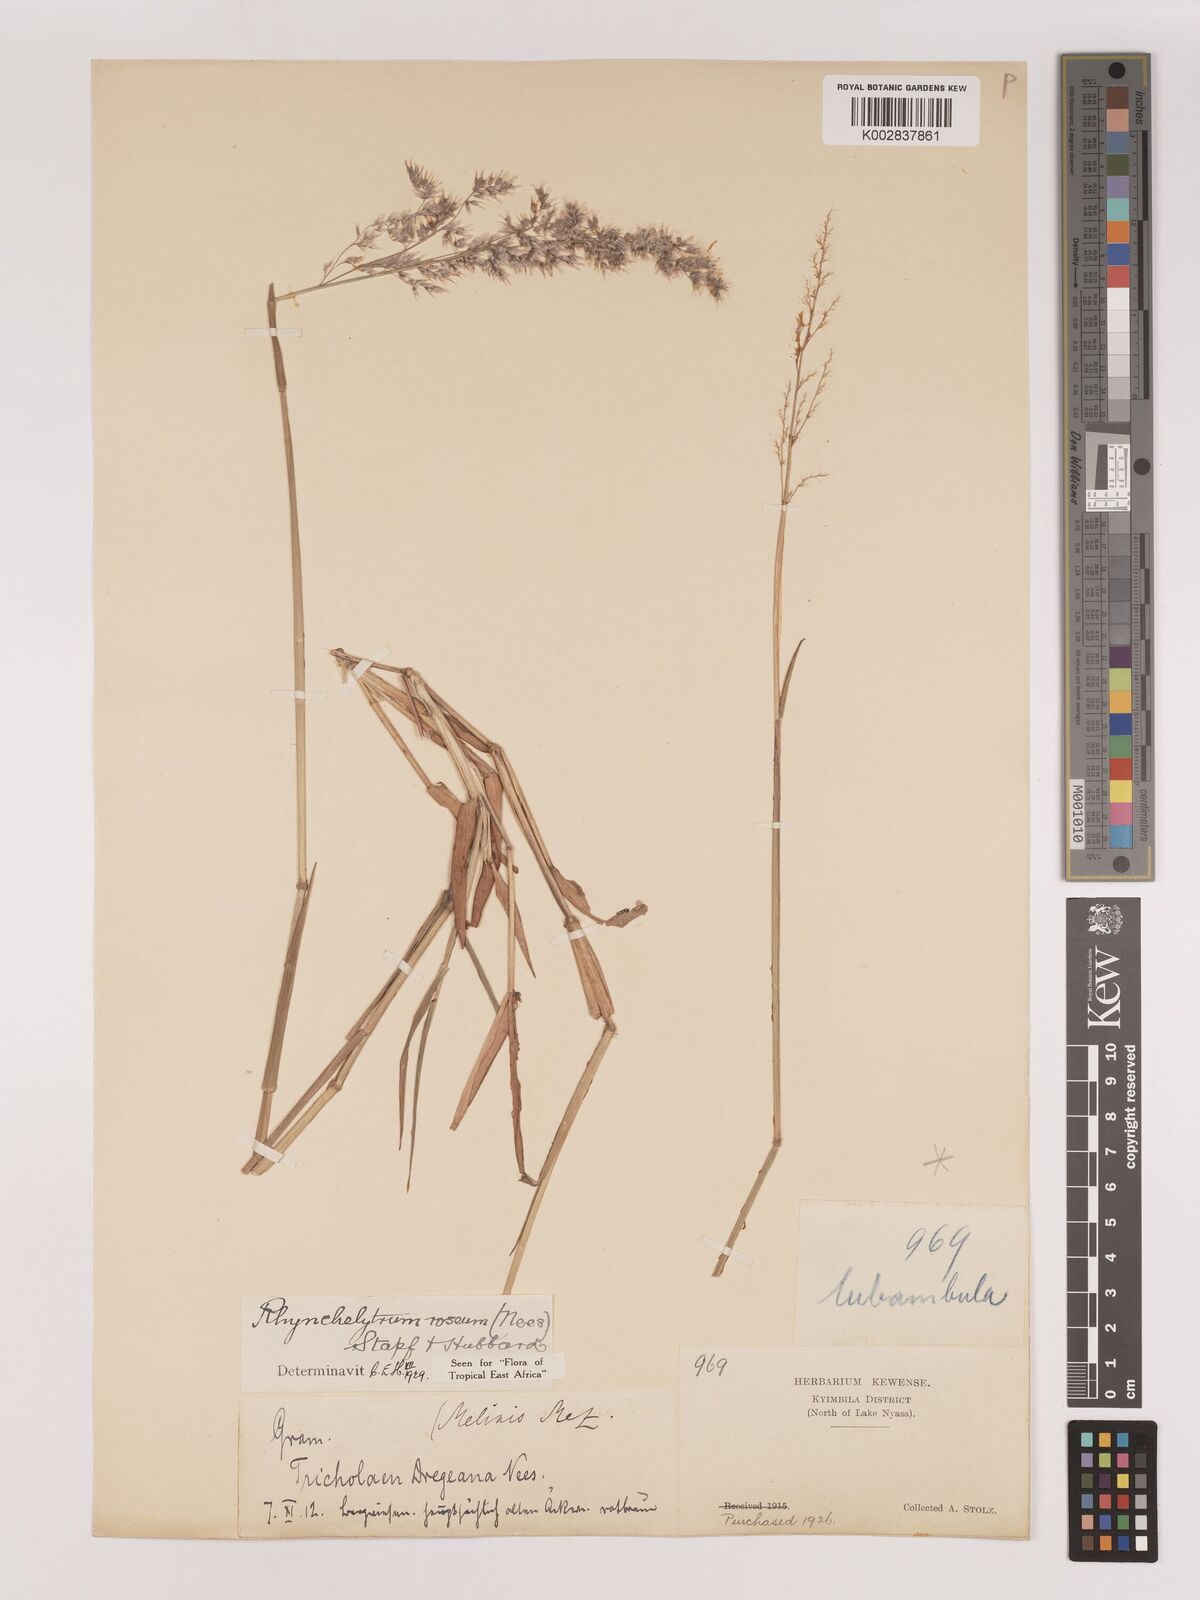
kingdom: Plantae
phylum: Tracheophyta
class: Liliopsida
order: Poales
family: Poaceae
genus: Melinis
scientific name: Melinis repens
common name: Rose natal grass
